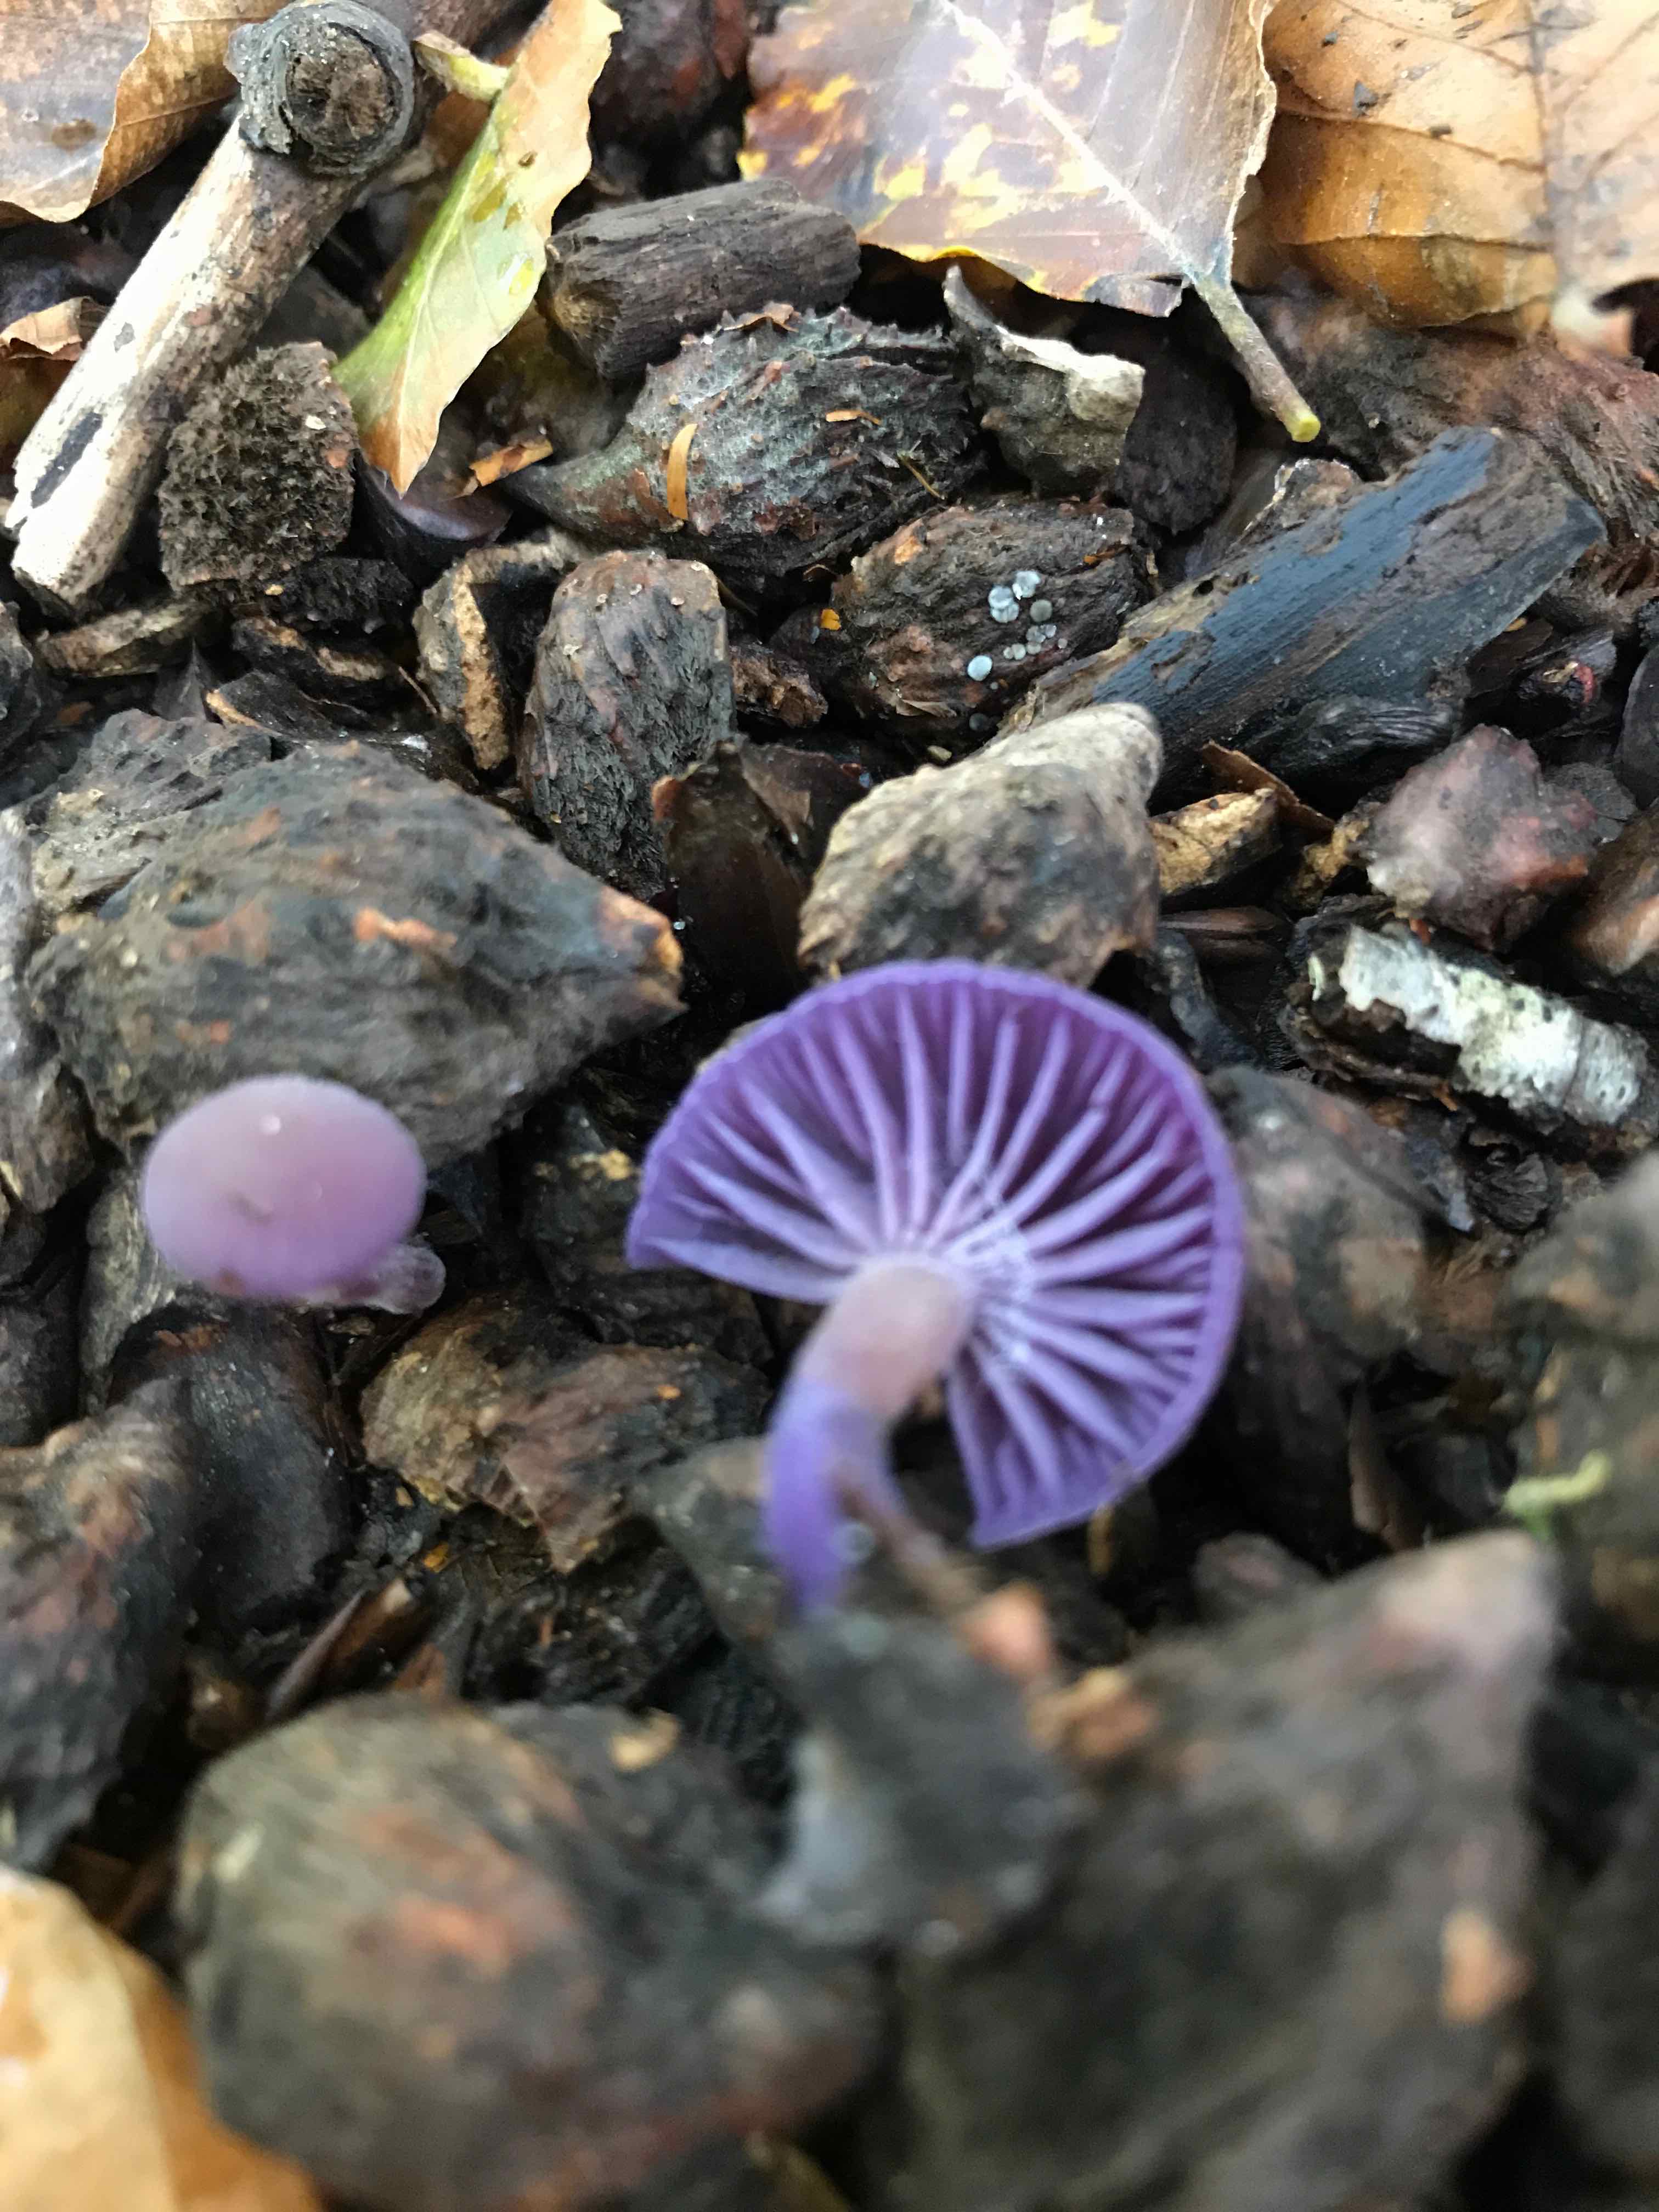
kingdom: Fungi
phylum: Basidiomycota
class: Agaricomycetes
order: Agaricales
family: Hydnangiaceae
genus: Laccaria
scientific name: Laccaria amethystina
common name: violet ametysthat
